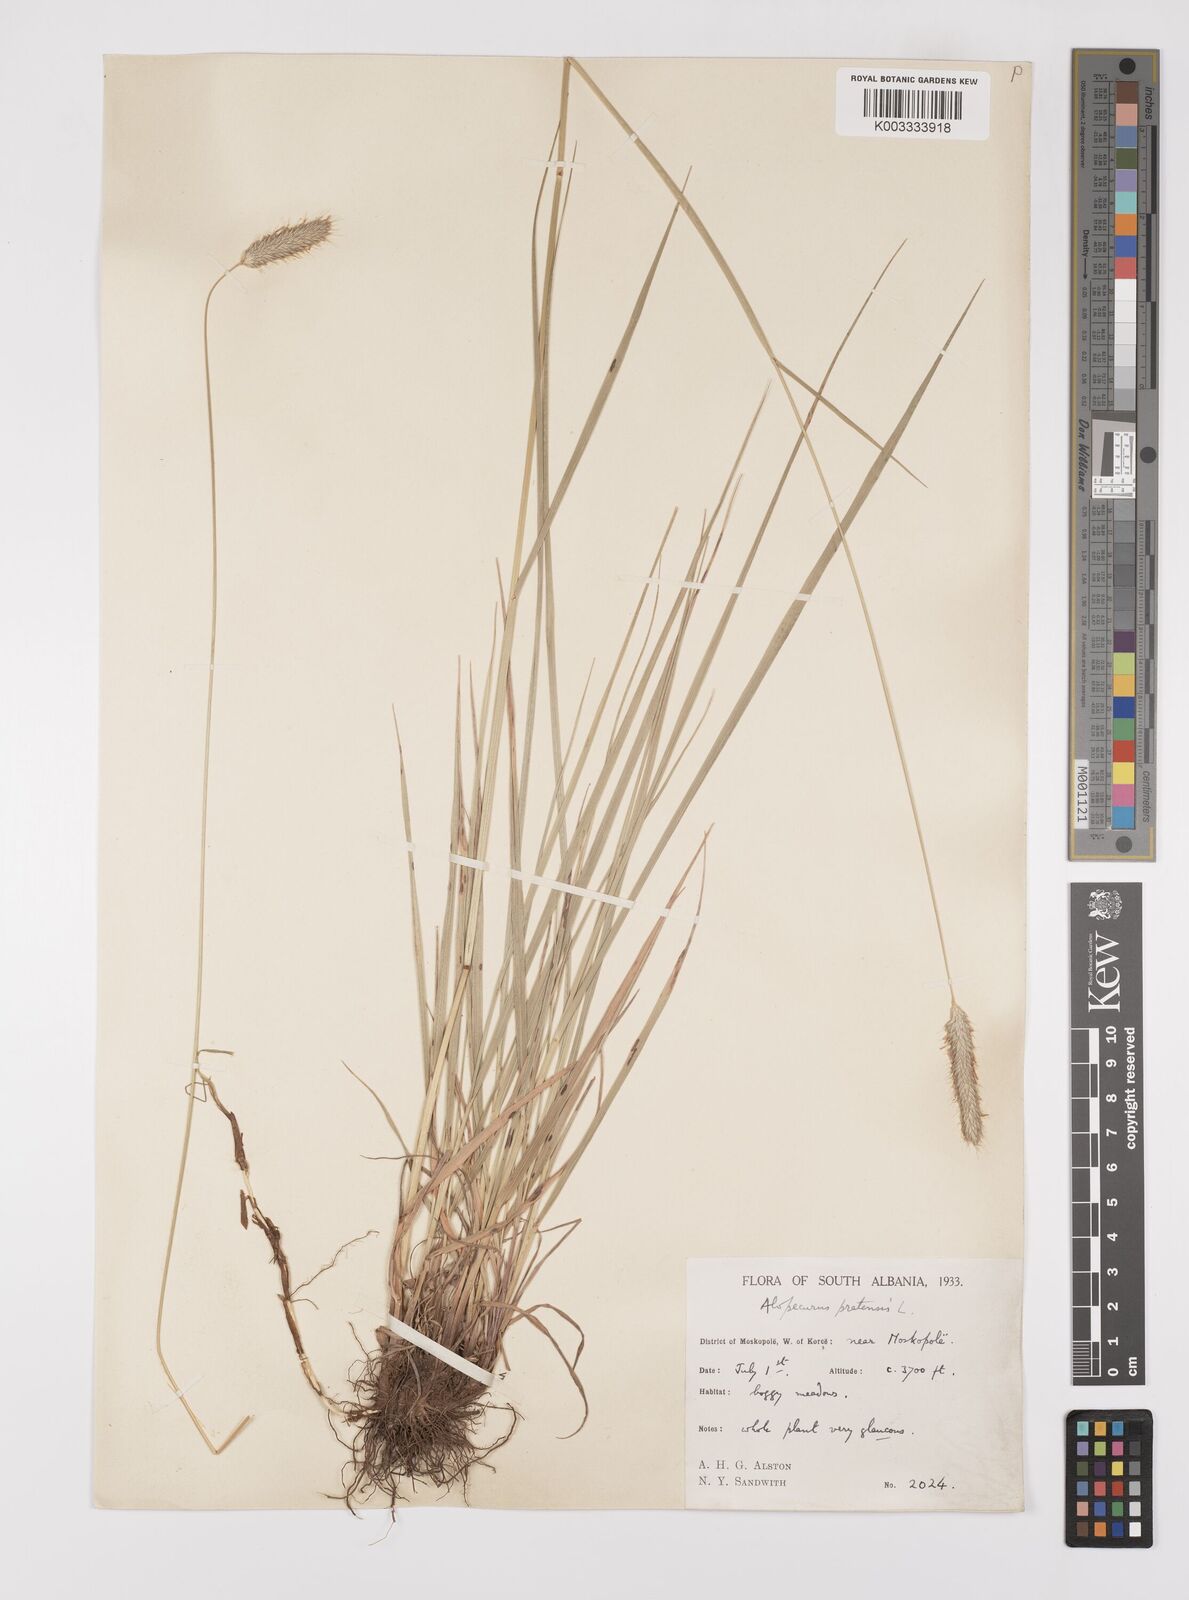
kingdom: Plantae
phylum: Tracheophyta
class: Liliopsida
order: Poales
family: Poaceae
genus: Alopecurus
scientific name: Alopecurus pratensis
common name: Meadow foxtail
